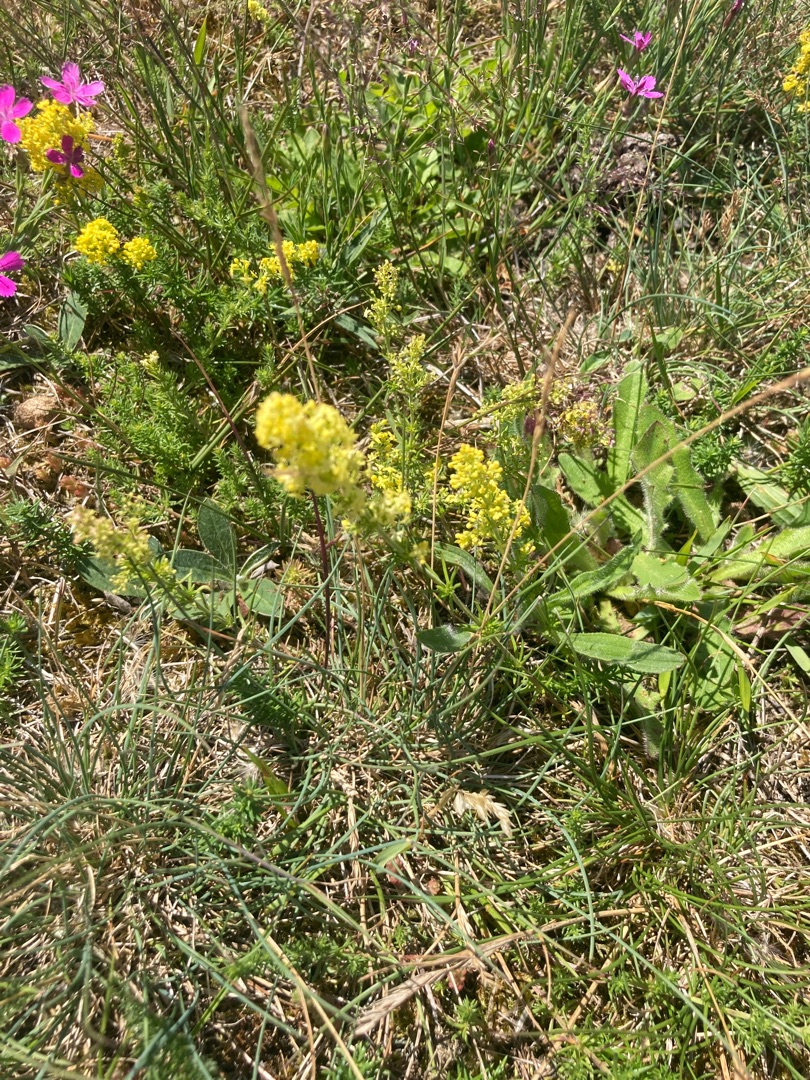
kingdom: Plantae
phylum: Tracheophyta
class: Magnoliopsida
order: Gentianales
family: Rubiaceae
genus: Galium
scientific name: Galium verum
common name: Gul snerre
